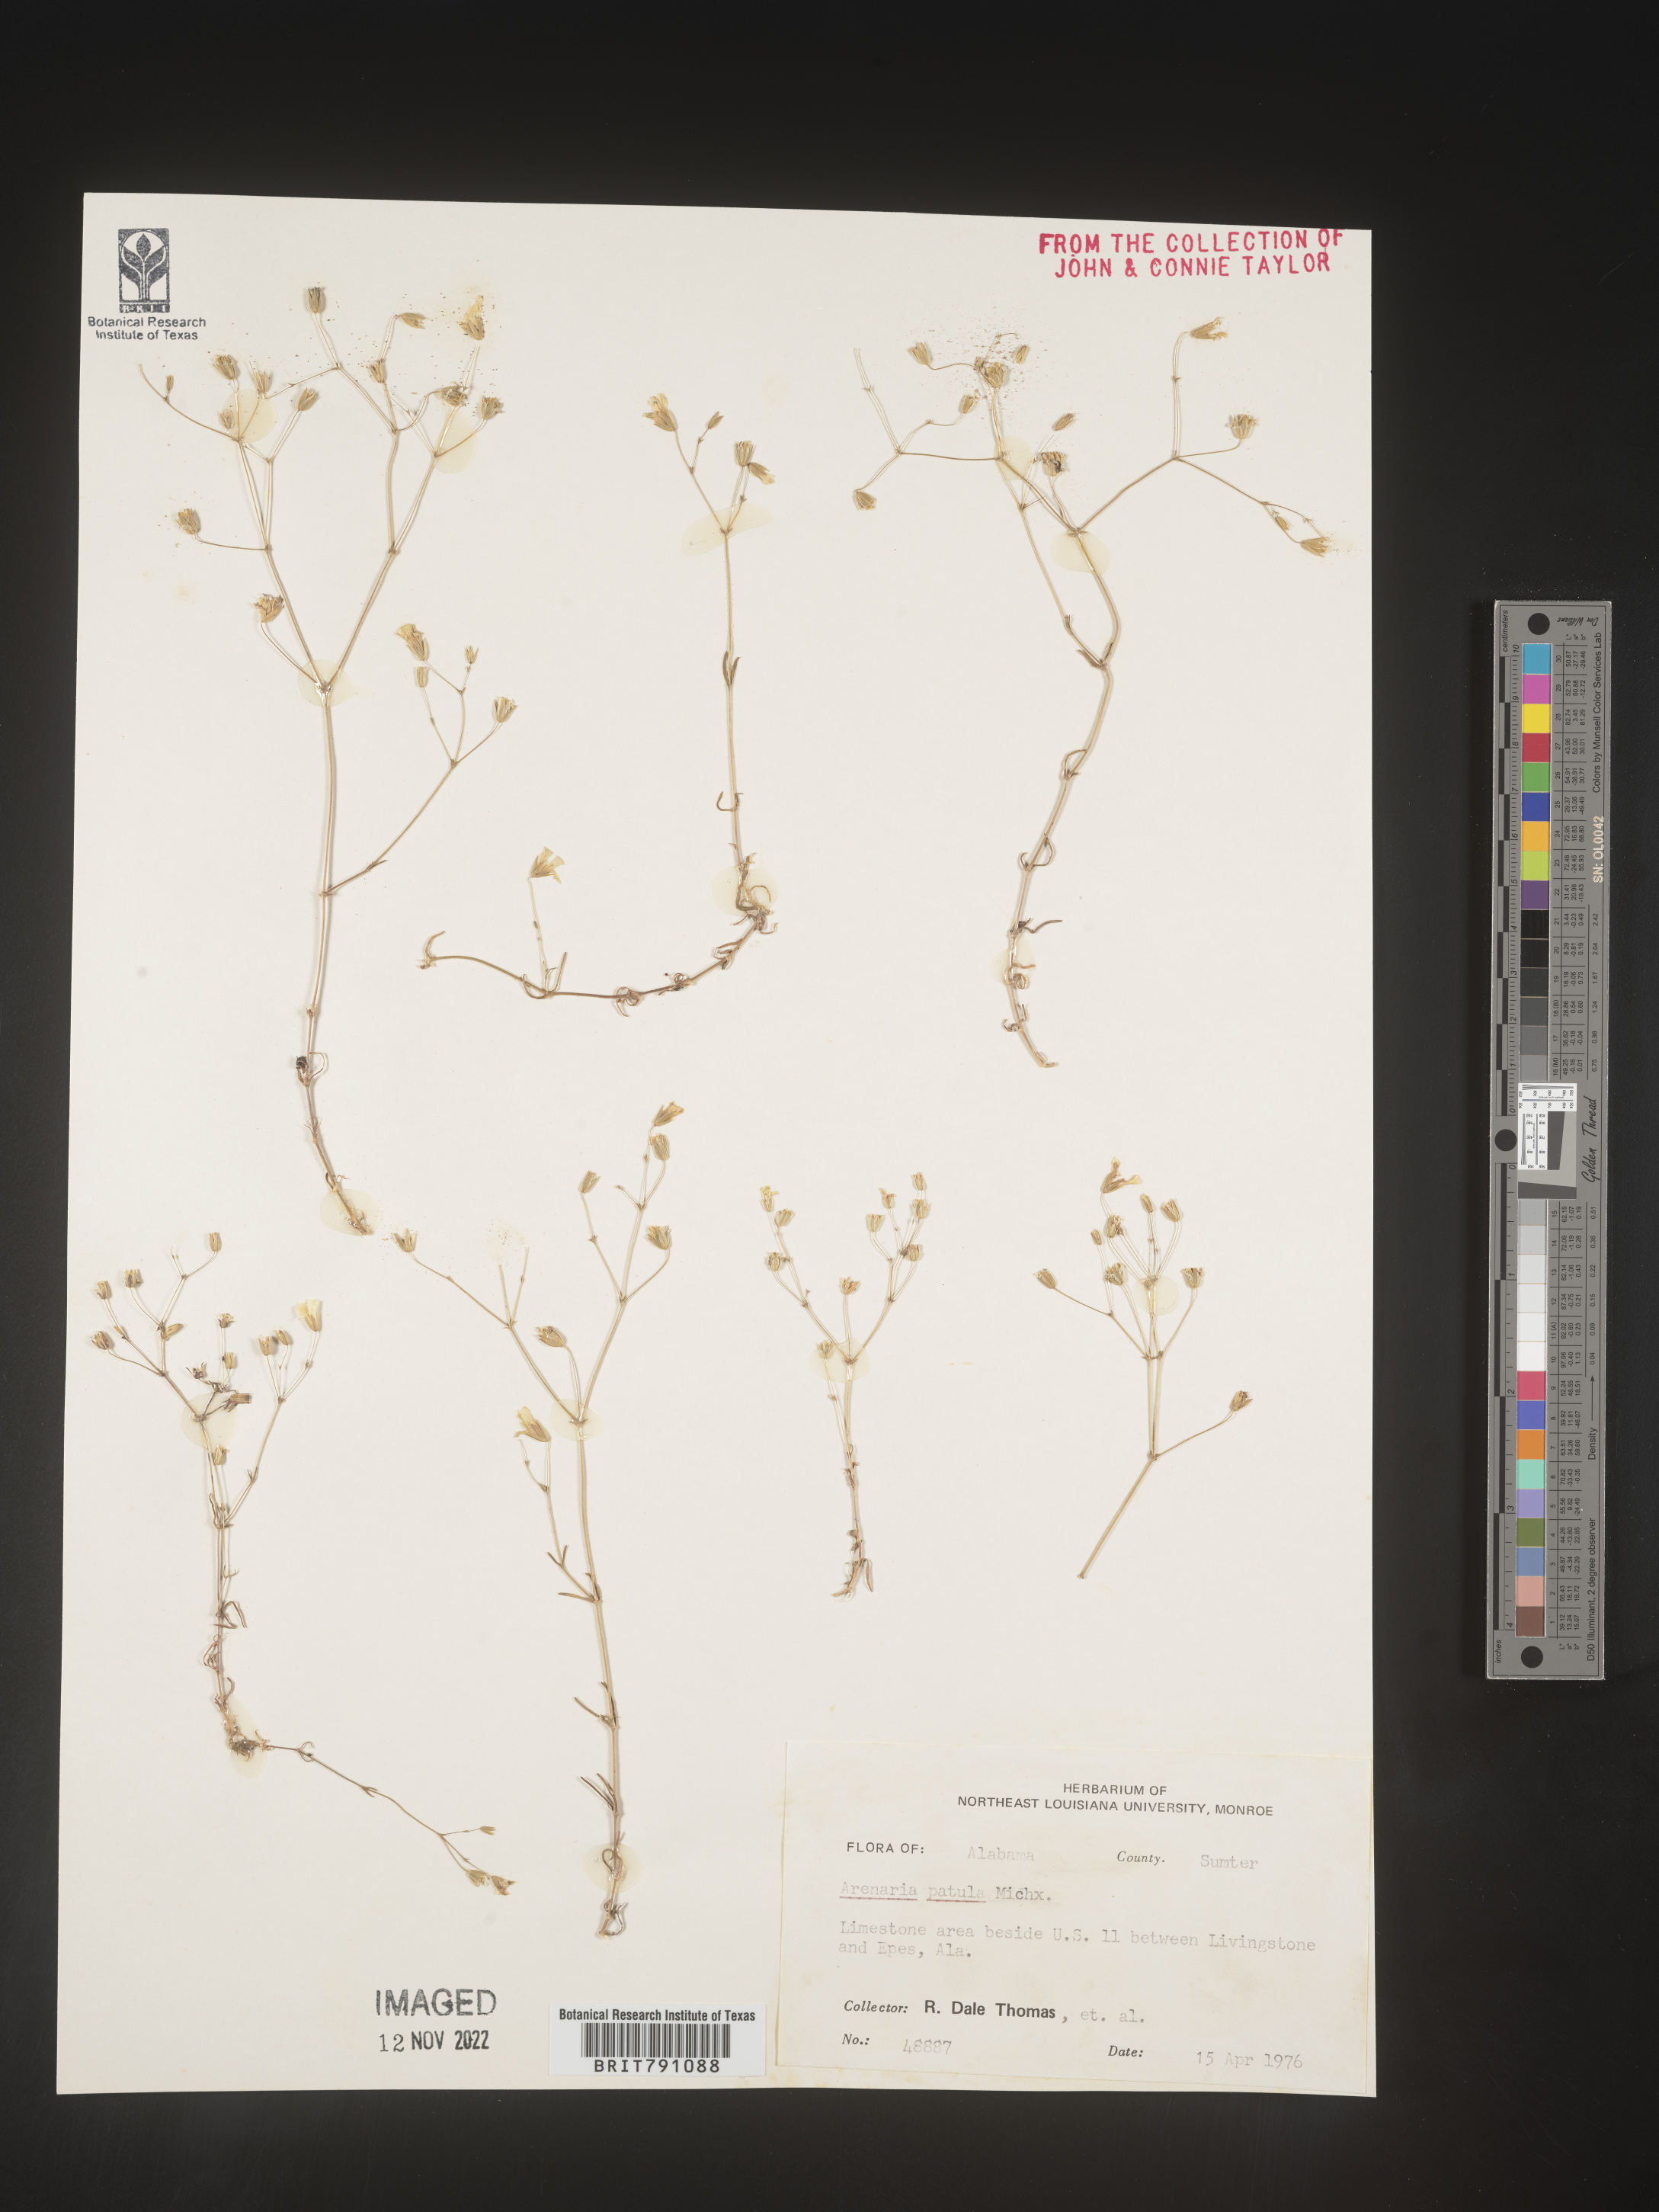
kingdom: Plantae
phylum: Tracheophyta
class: Magnoliopsida
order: Caryophyllales
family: Caryophyllaceae
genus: Mononeuria
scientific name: Mononeuria patula
